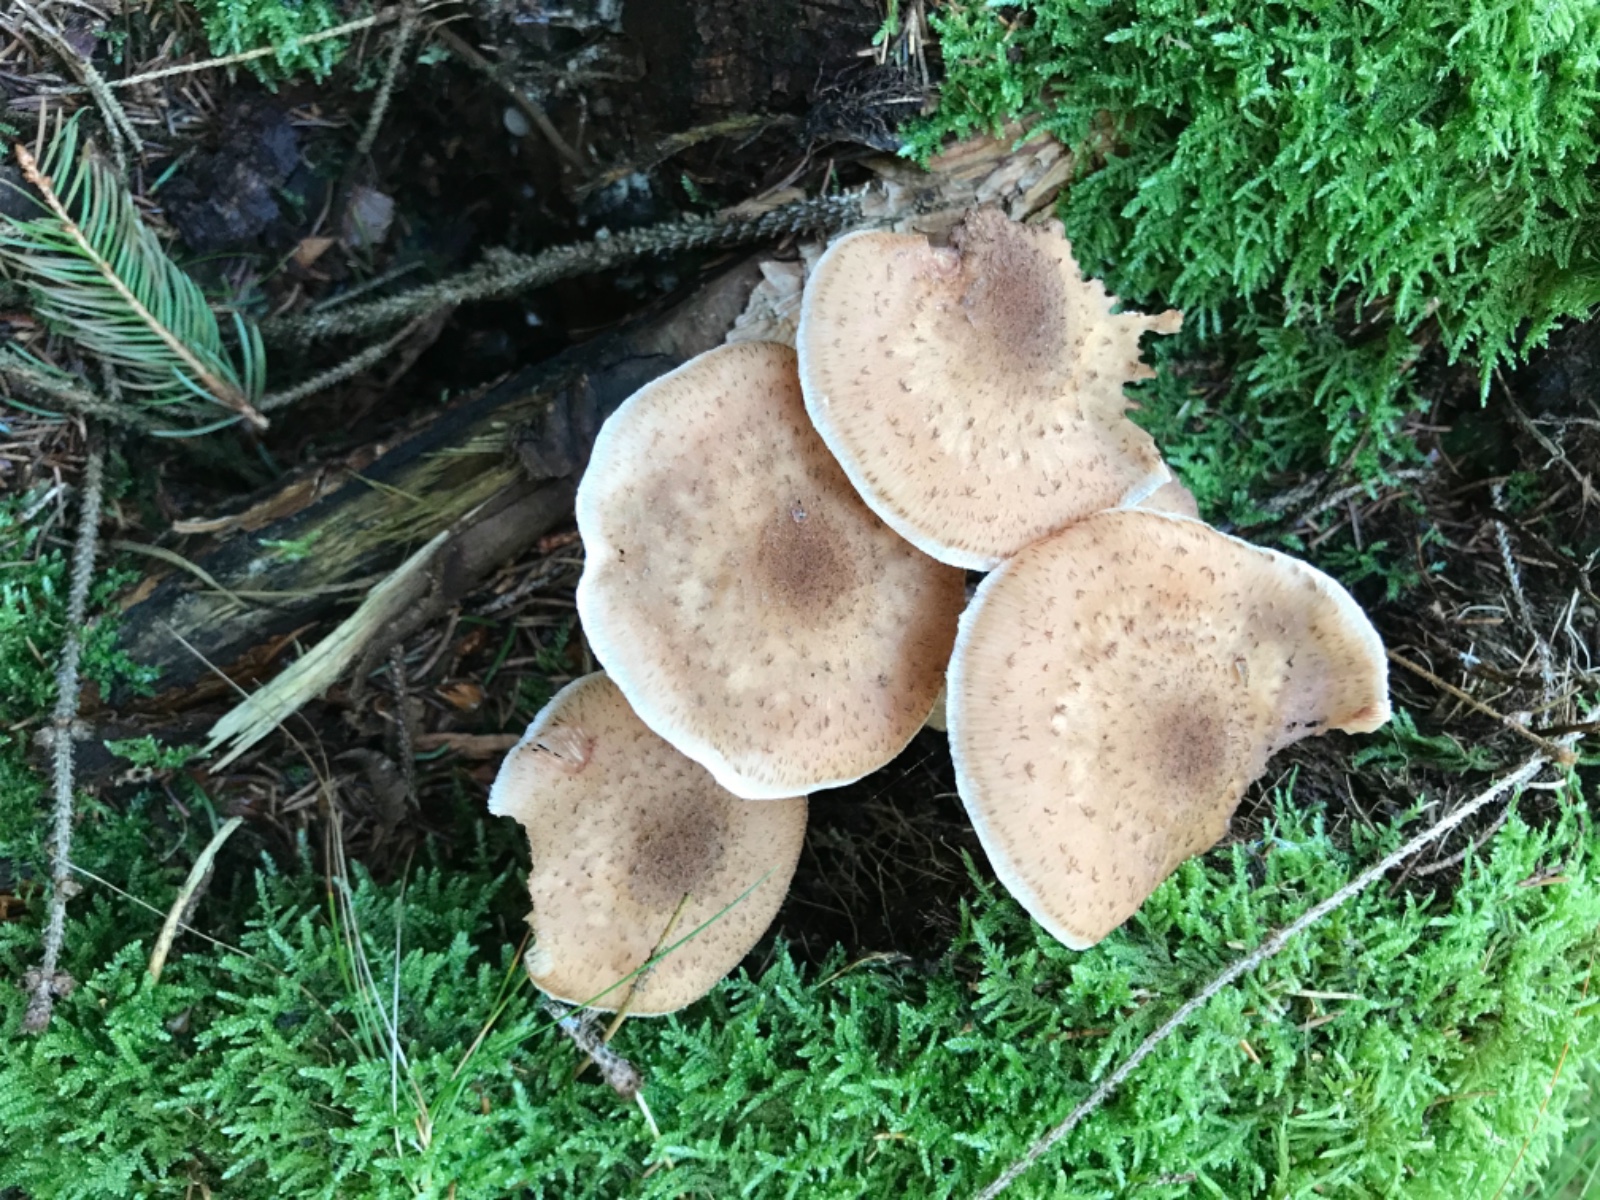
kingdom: Fungi
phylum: Basidiomycota
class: Agaricomycetes
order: Agaricales
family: Physalacriaceae
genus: Armillaria
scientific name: Armillaria ostoyae
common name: mørk honningsvamp
